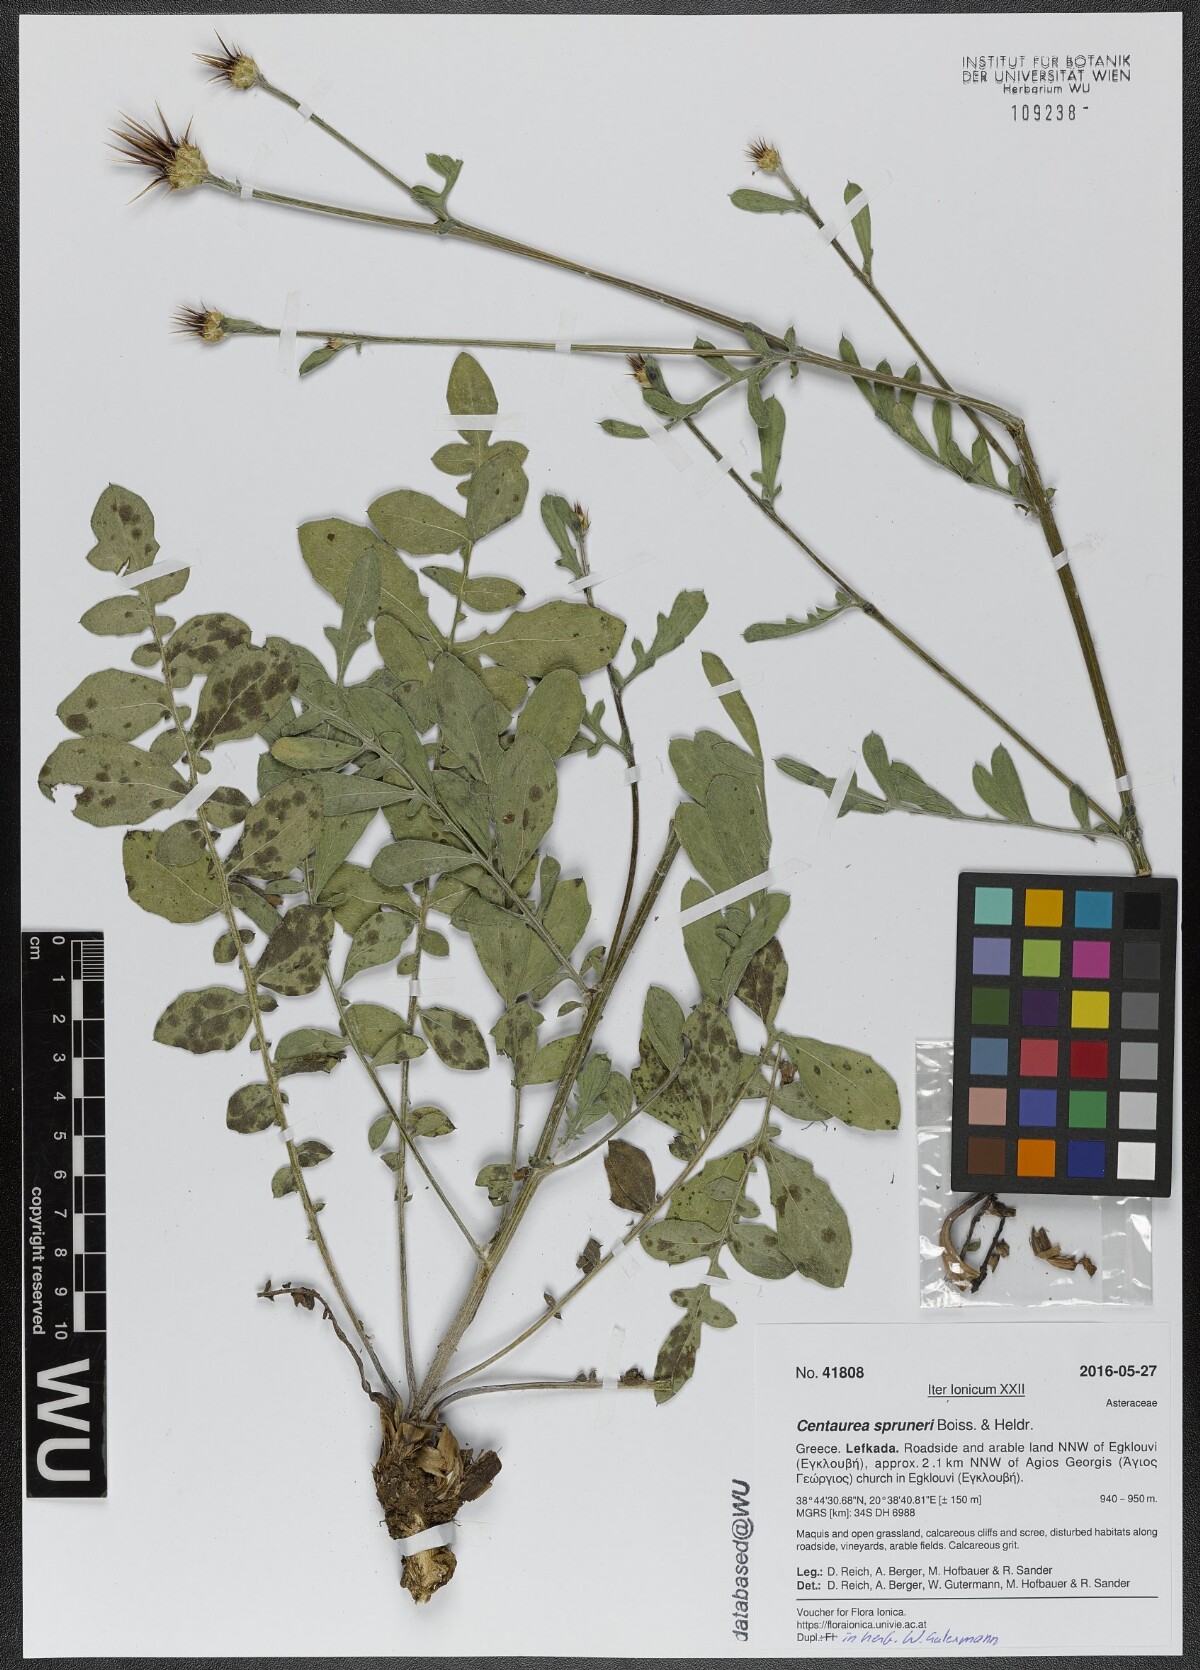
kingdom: Plantae
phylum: Tracheophyta
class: Magnoliopsida
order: Asterales
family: Asteraceae
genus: Centaurea
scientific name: Centaurea spruneri
